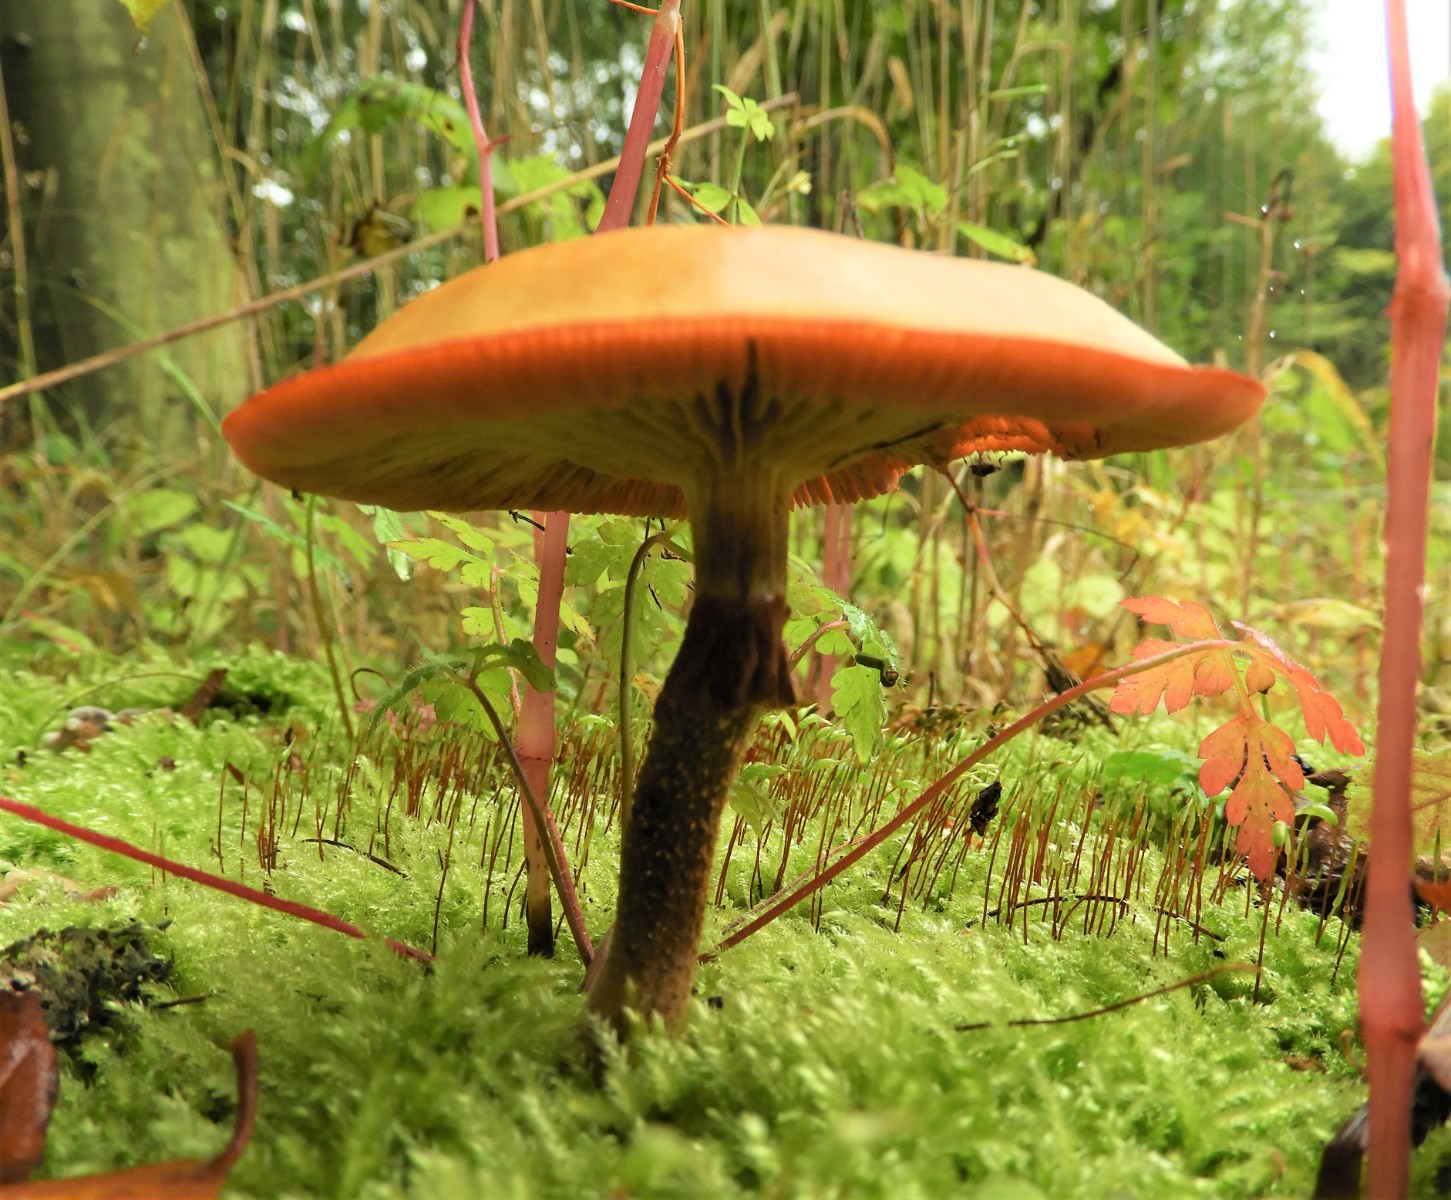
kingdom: Fungi
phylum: Basidiomycota
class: Agaricomycetes
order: Agaricales
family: Strophariaceae
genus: Kuehneromyces
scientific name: Kuehneromyces mutabilis
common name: foranderlig skælhat
